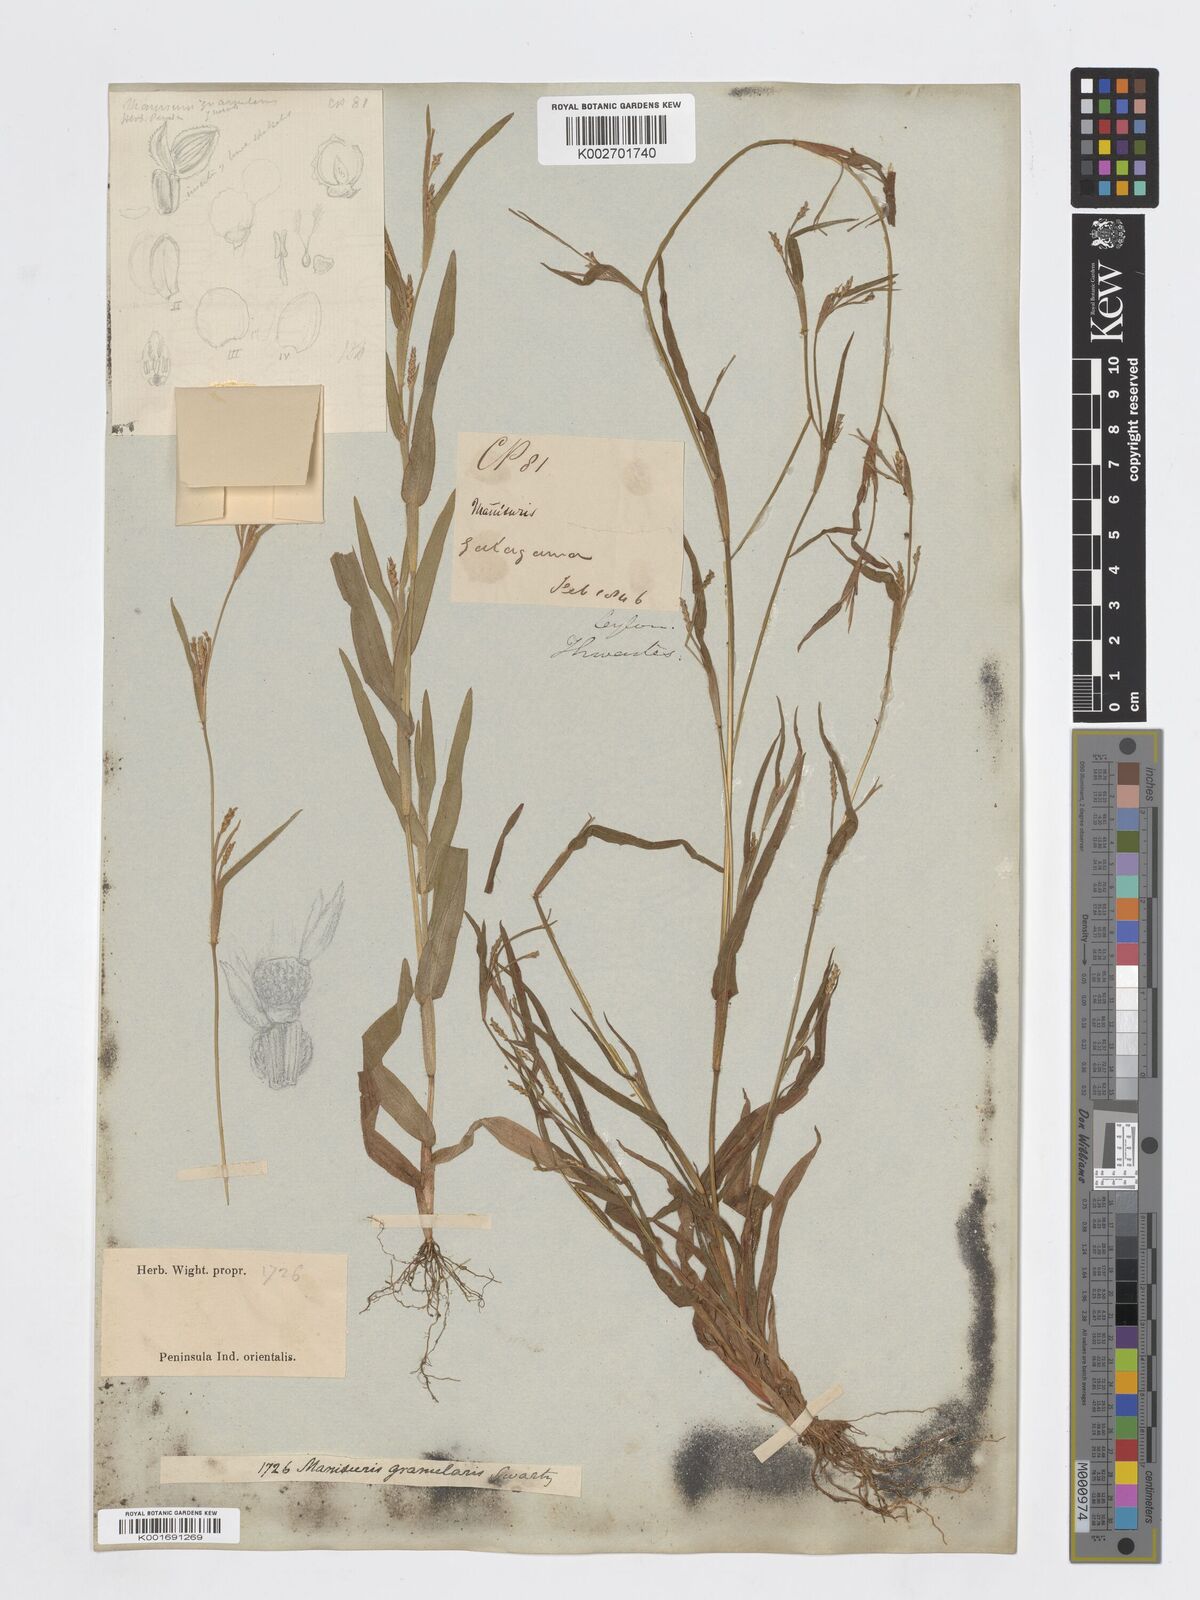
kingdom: Plantae
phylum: Tracheophyta
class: Liliopsida
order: Poales
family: Poaceae
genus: Manisuris
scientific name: Manisuris
